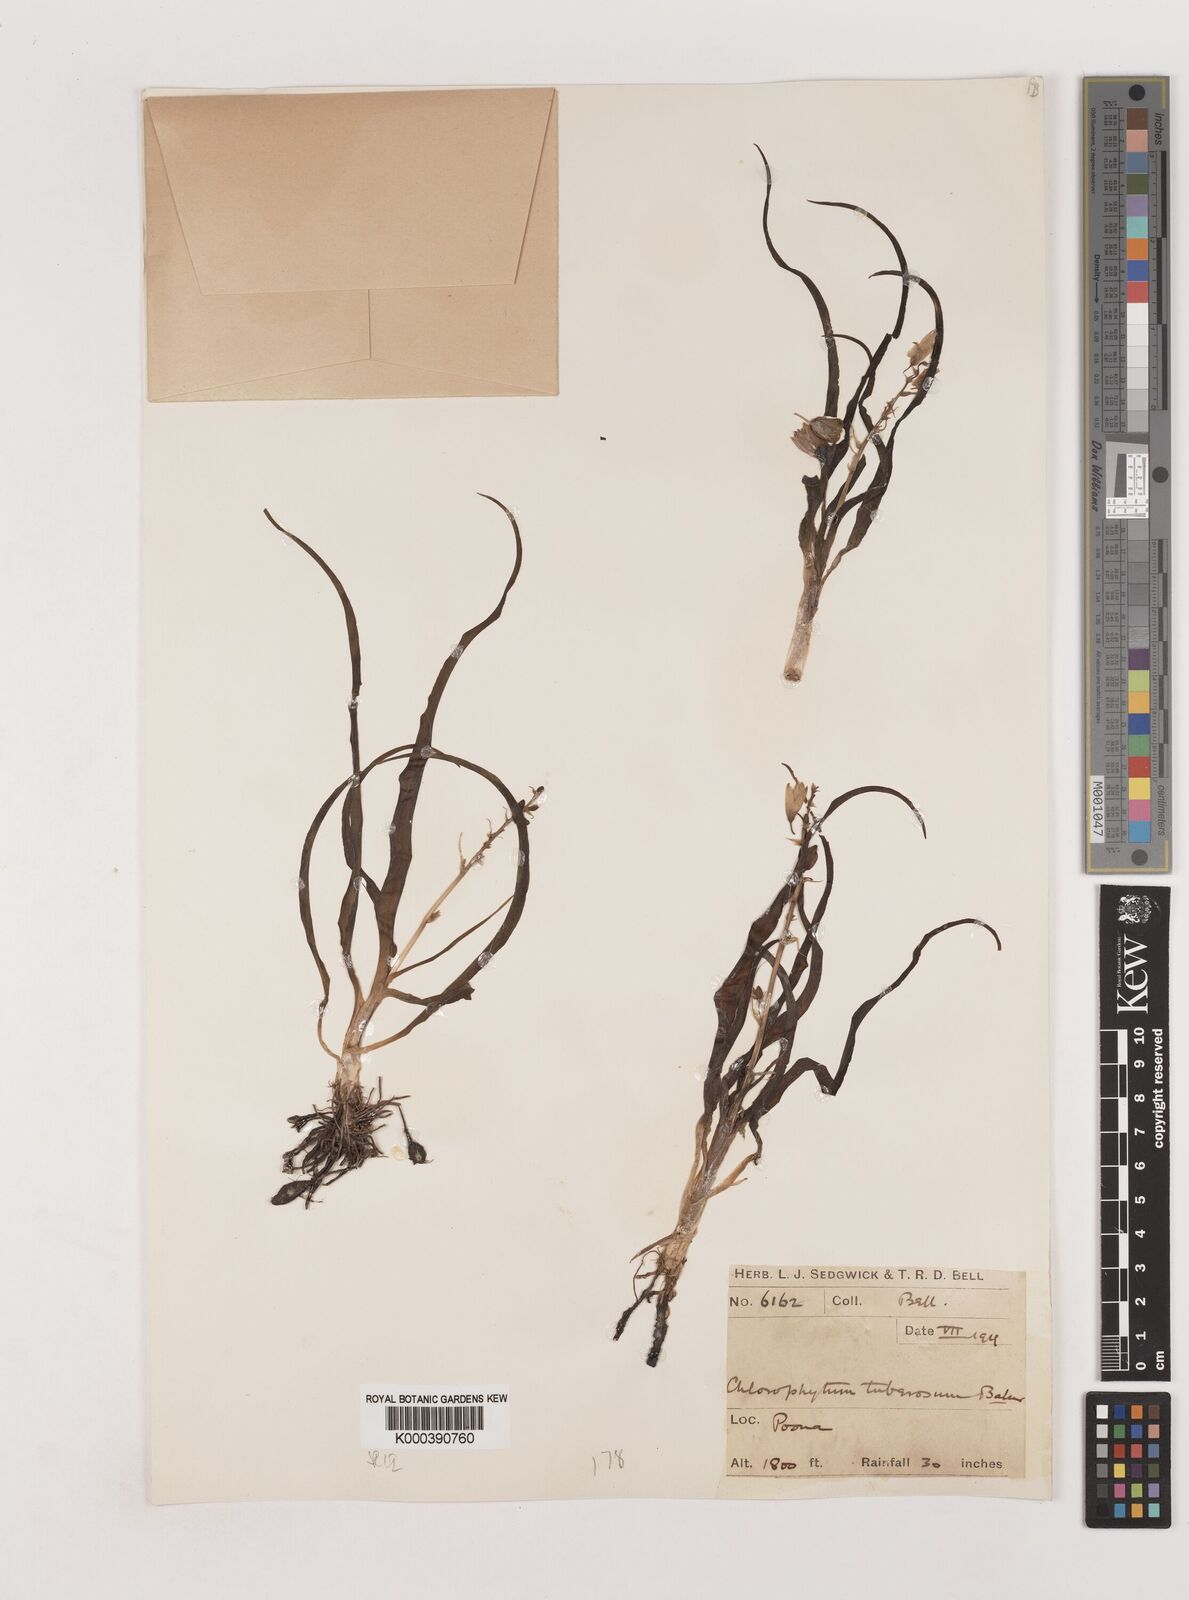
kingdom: Plantae
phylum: Tracheophyta
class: Liliopsida
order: Asparagales
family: Asparagaceae
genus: Chlorophytum
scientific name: Chlorophytum tuberosum
